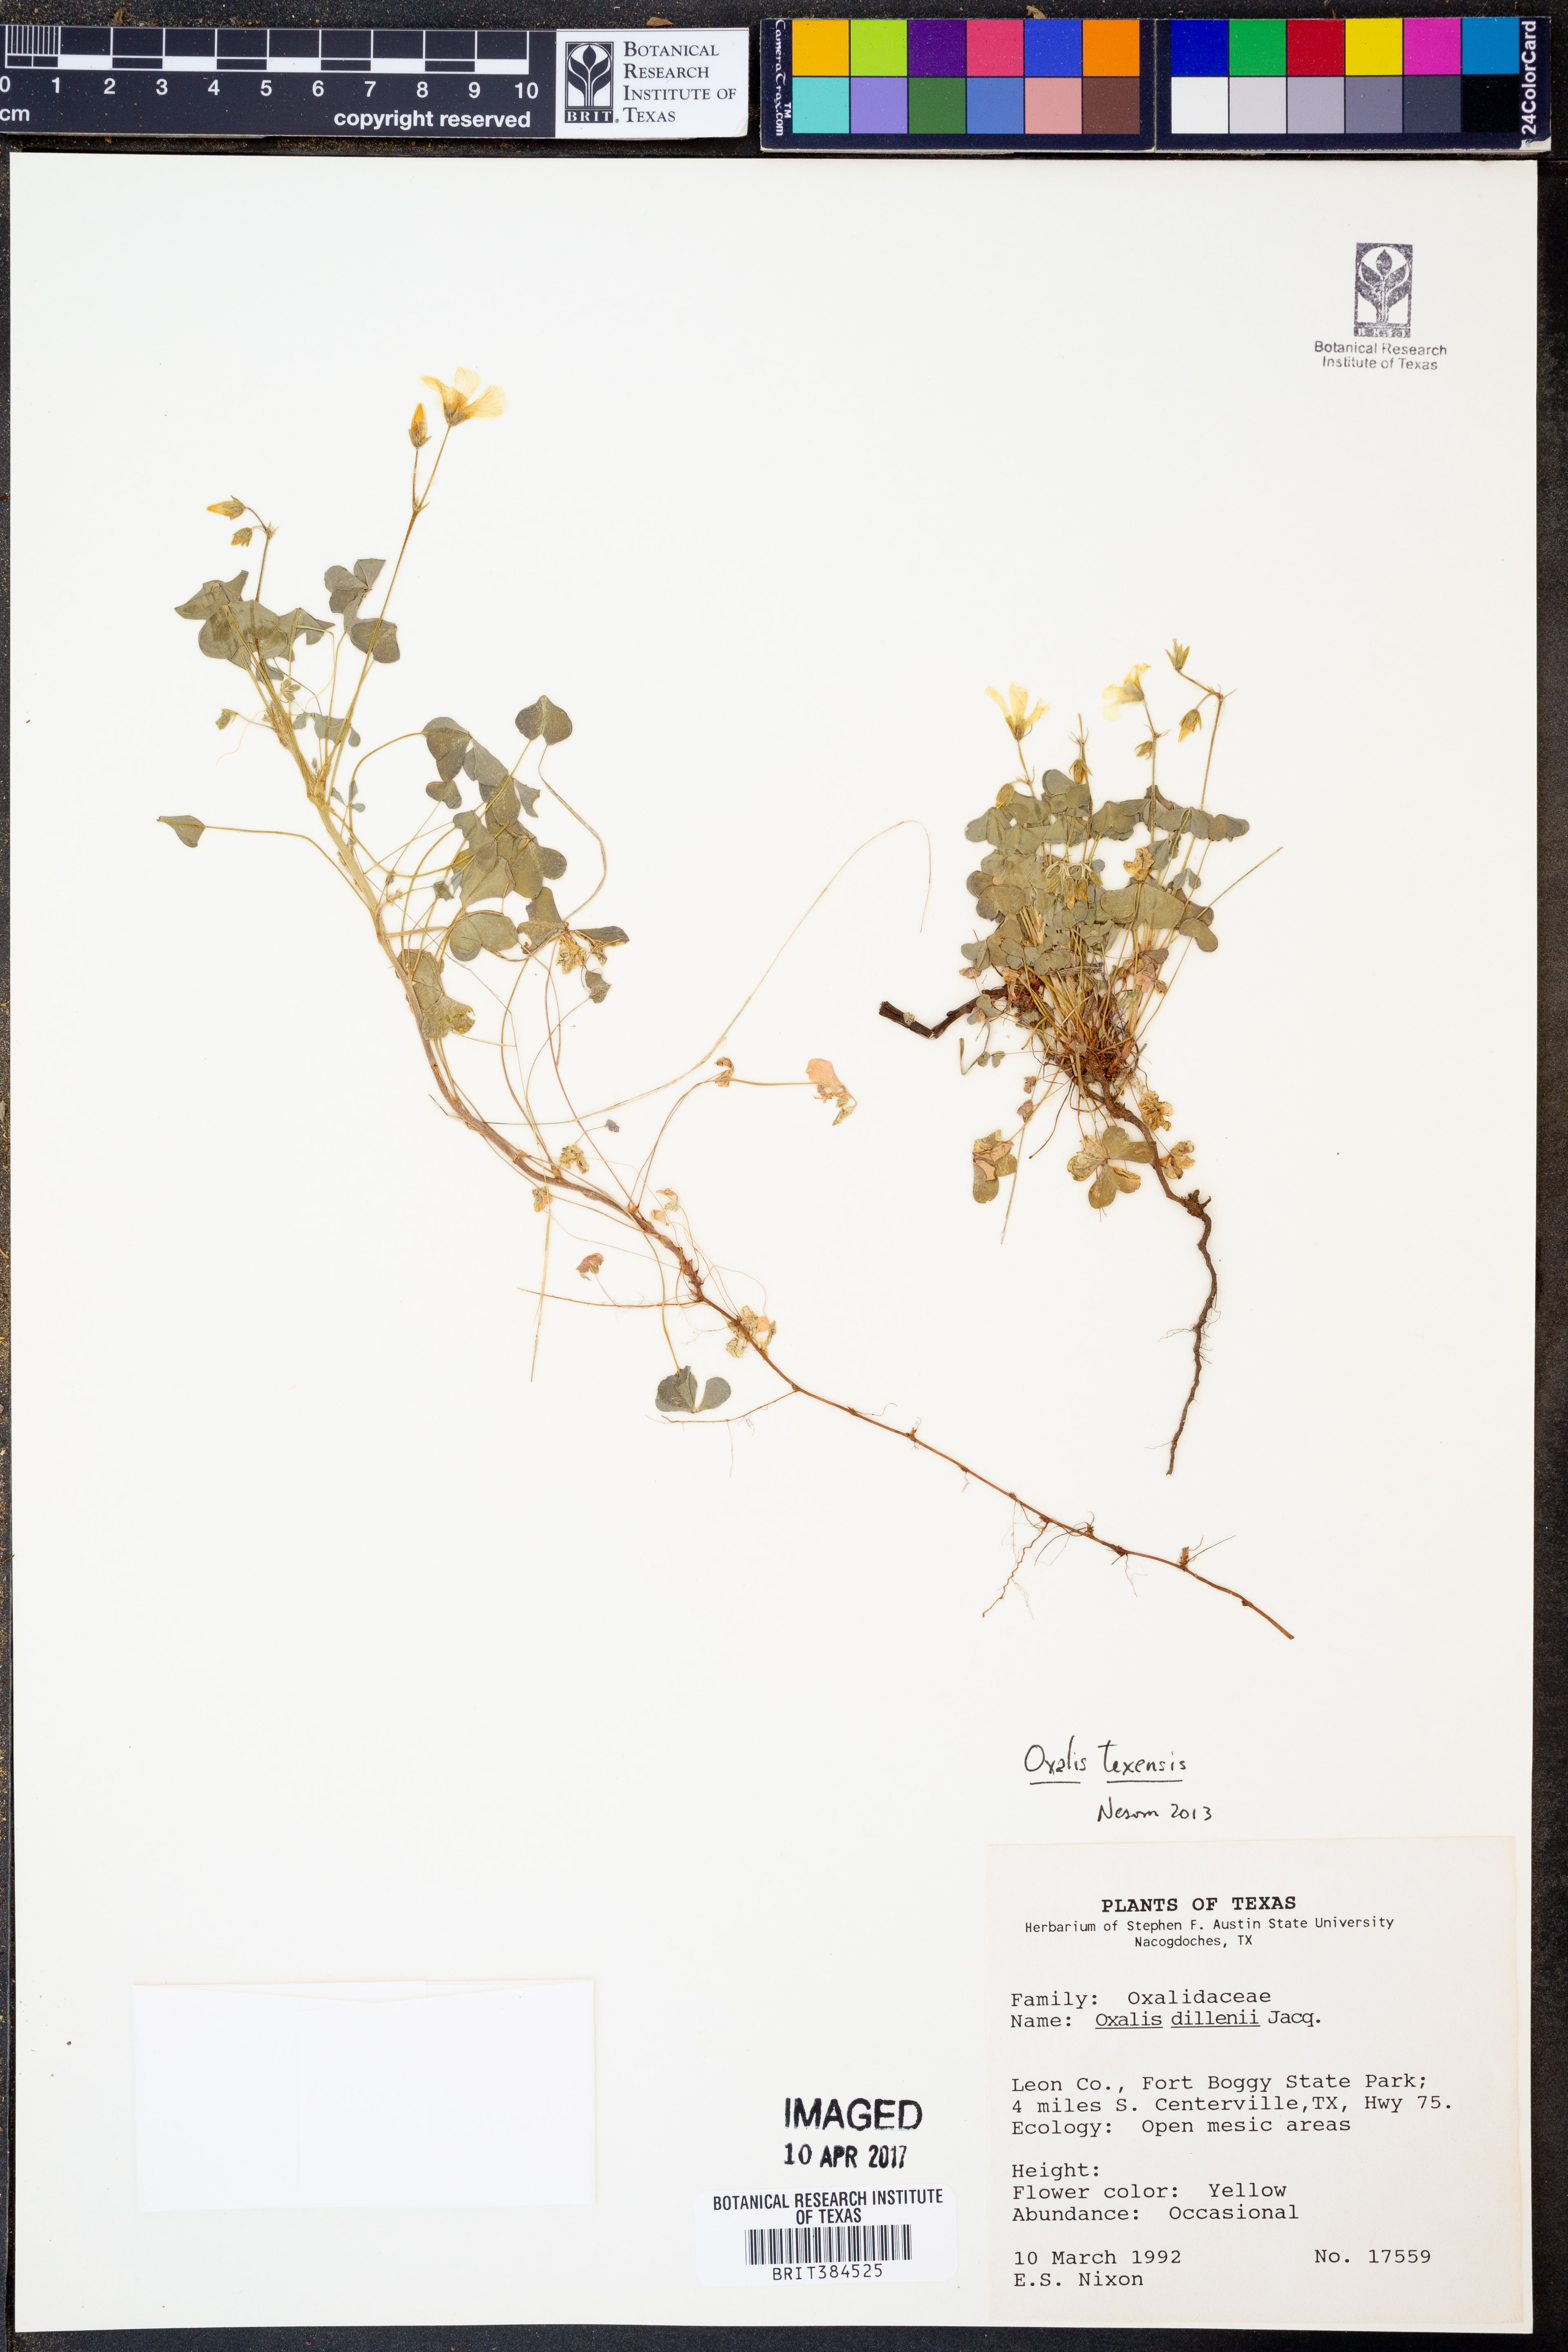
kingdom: Plantae
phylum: Tracheophyta
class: Magnoliopsida
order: Oxalidales
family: Oxalidaceae
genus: Oxalis
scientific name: Oxalis
